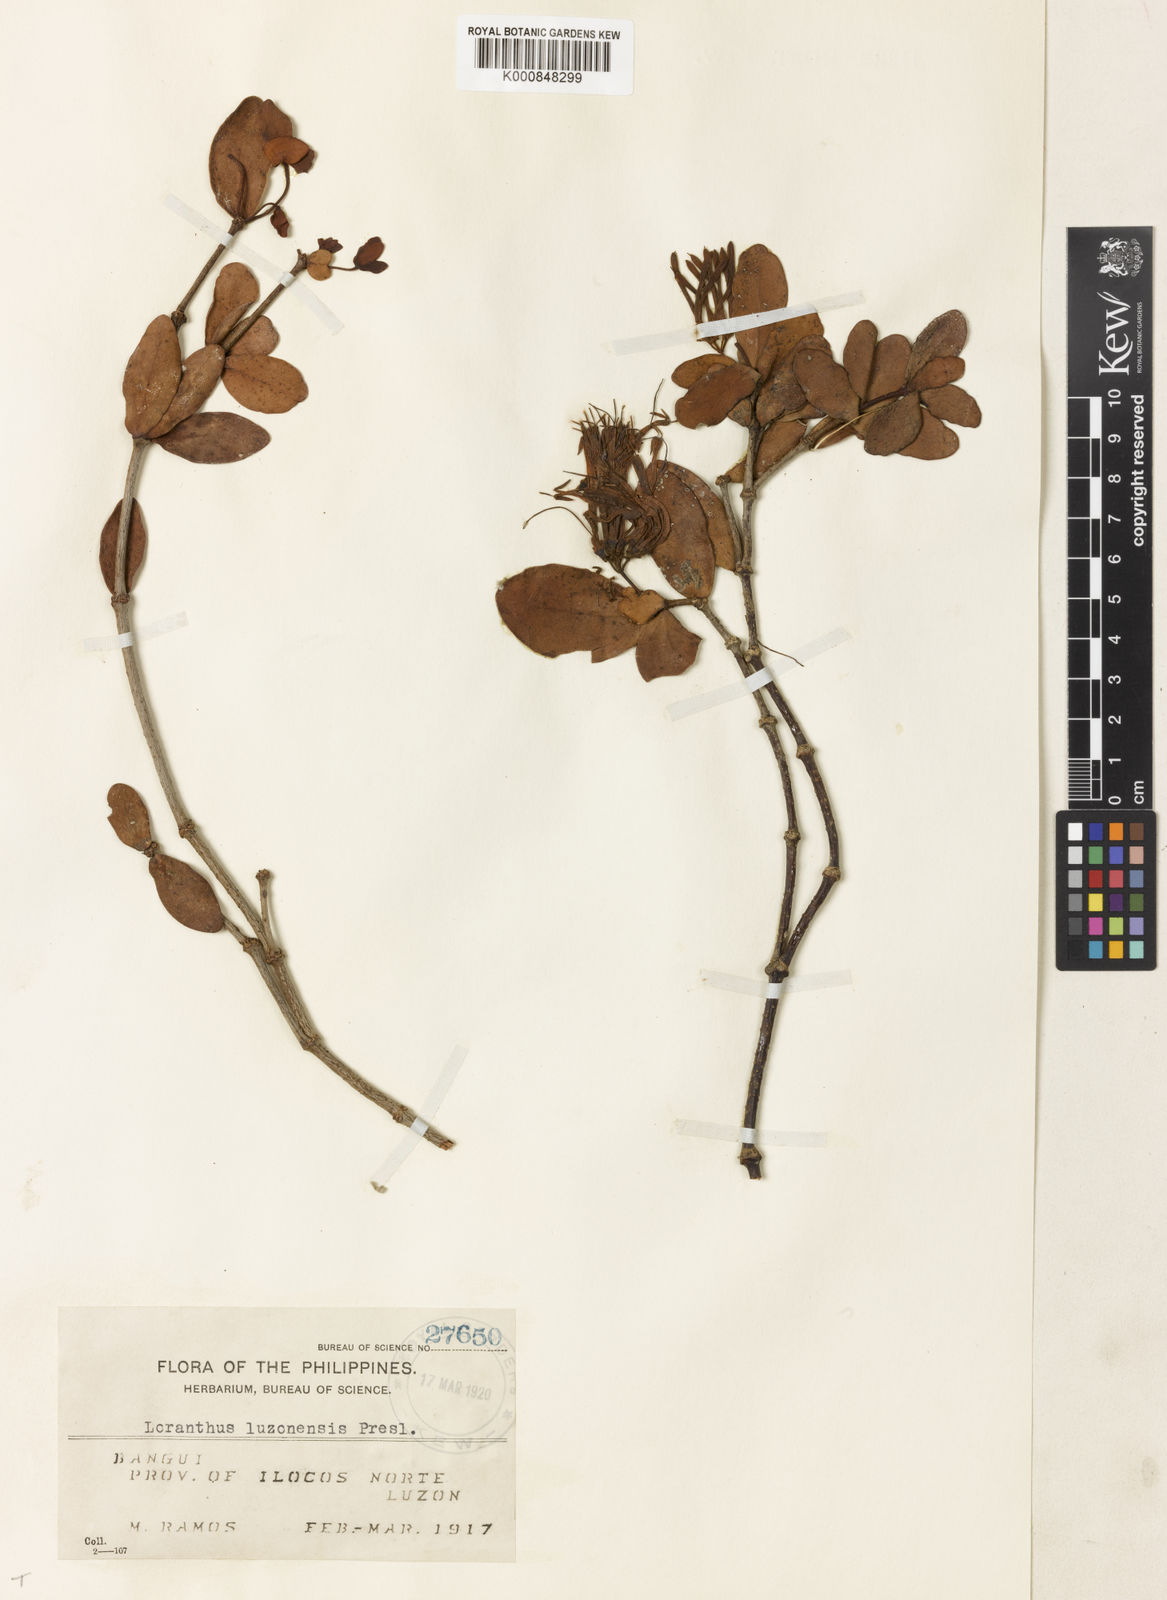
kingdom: Plantae
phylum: Tracheophyta
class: Magnoliopsida
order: Santalales
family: Loranthaceae
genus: Amyema
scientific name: Amyema luzonensis
